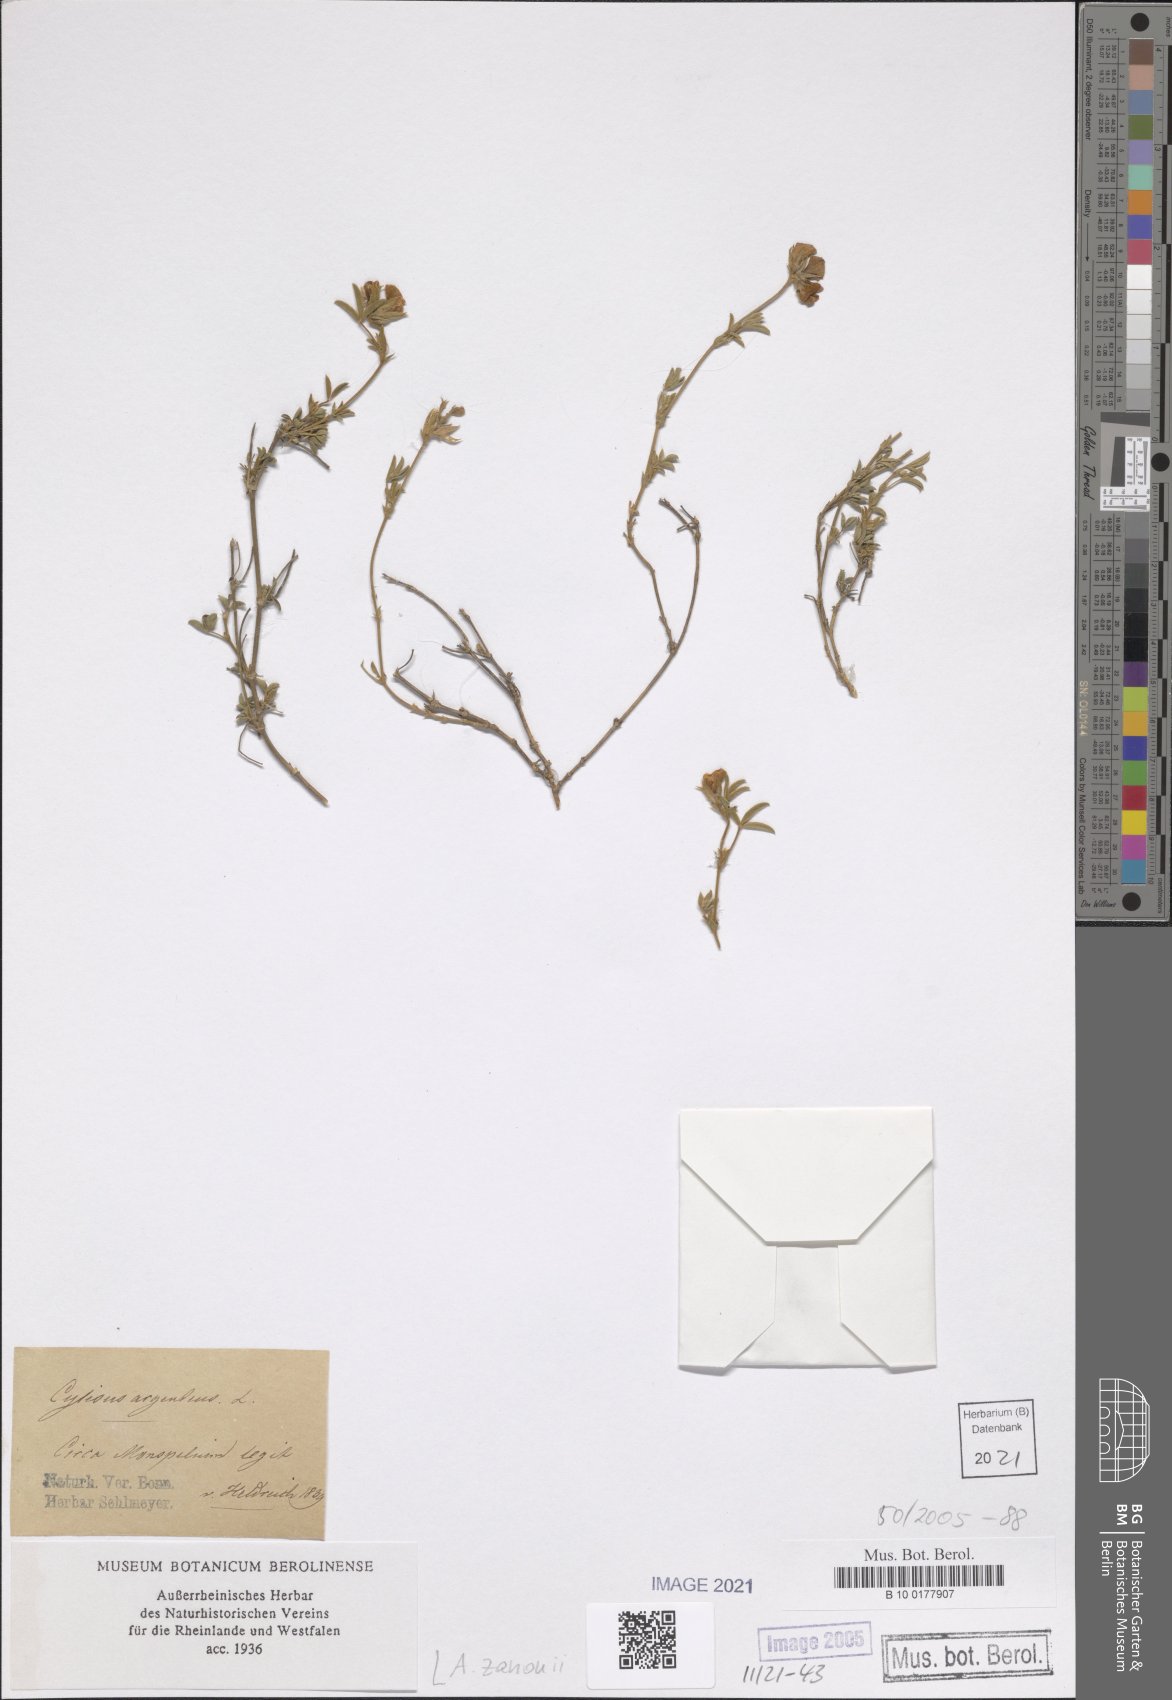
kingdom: Plantae
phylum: Tracheophyta
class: Magnoliopsida
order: Fabales
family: Fabaceae
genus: Argyrolobium
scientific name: Argyrolobium zanonii
